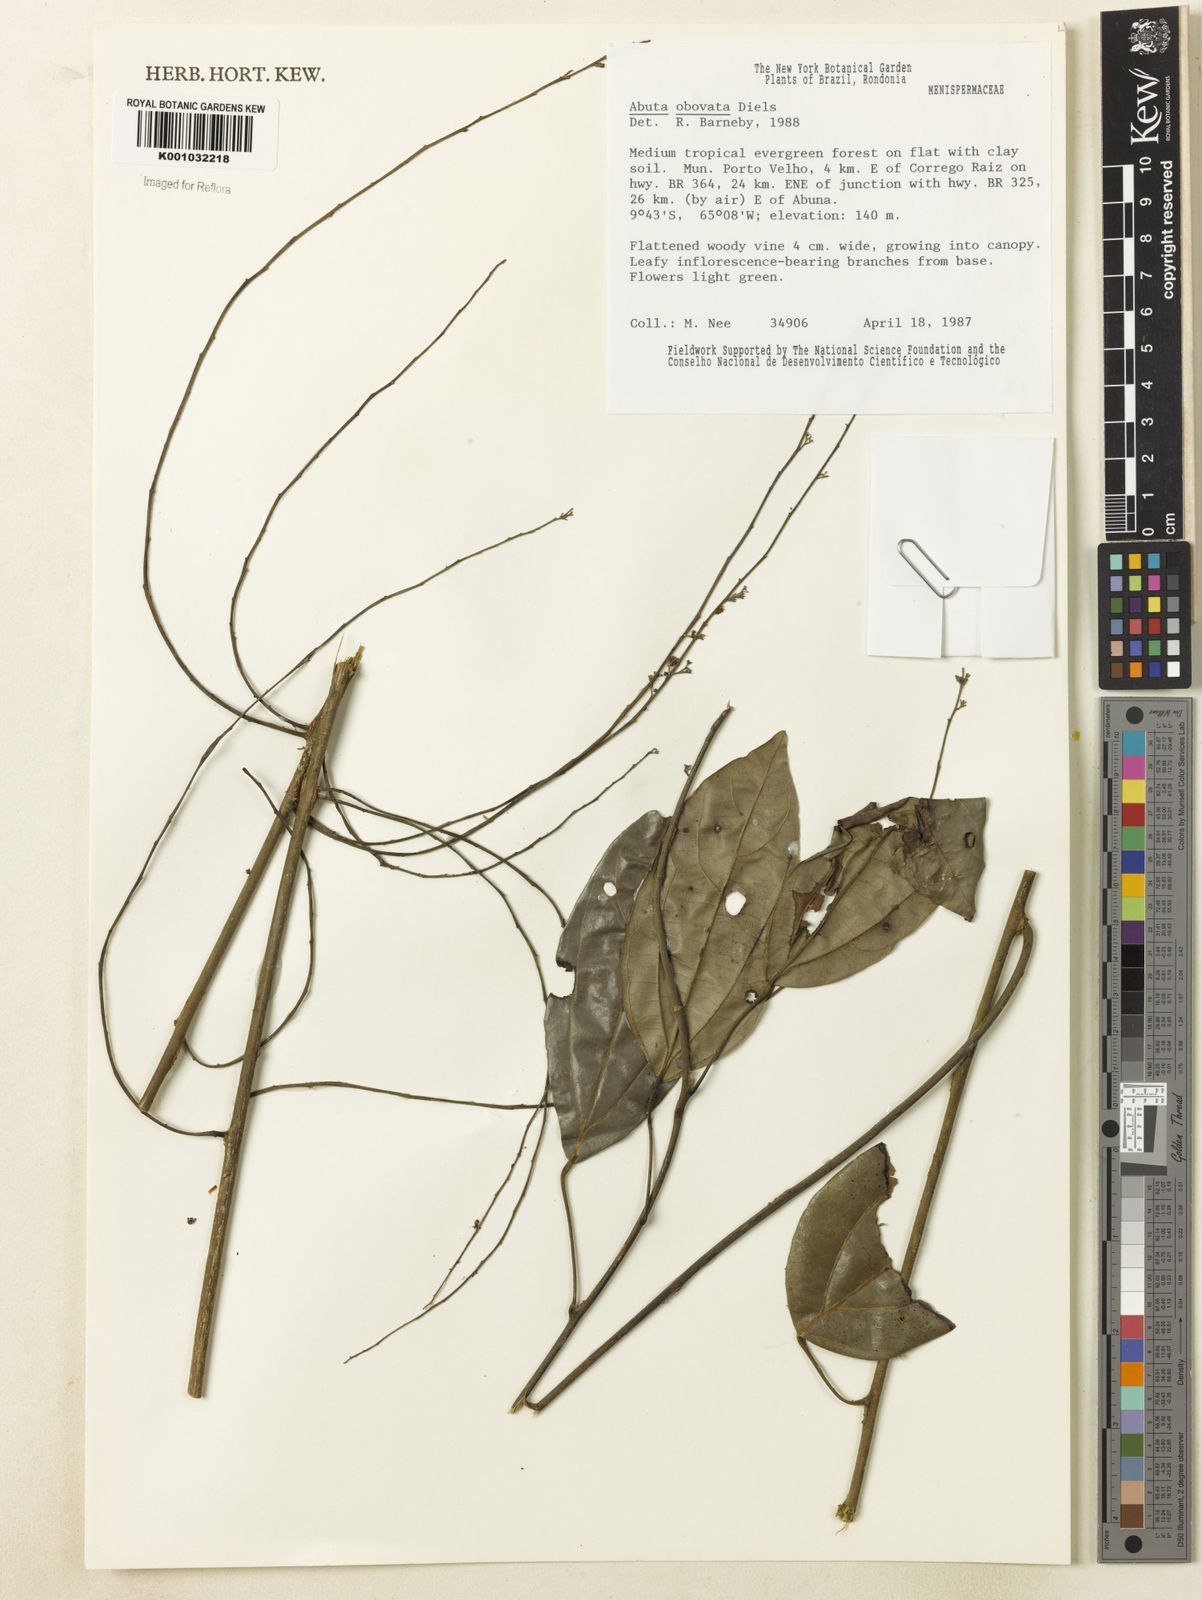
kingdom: Plantae
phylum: Tracheophyta
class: Magnoliopsida
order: Ranunculales
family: Menispermaceae
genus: Abuta
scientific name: Abuta obovata
